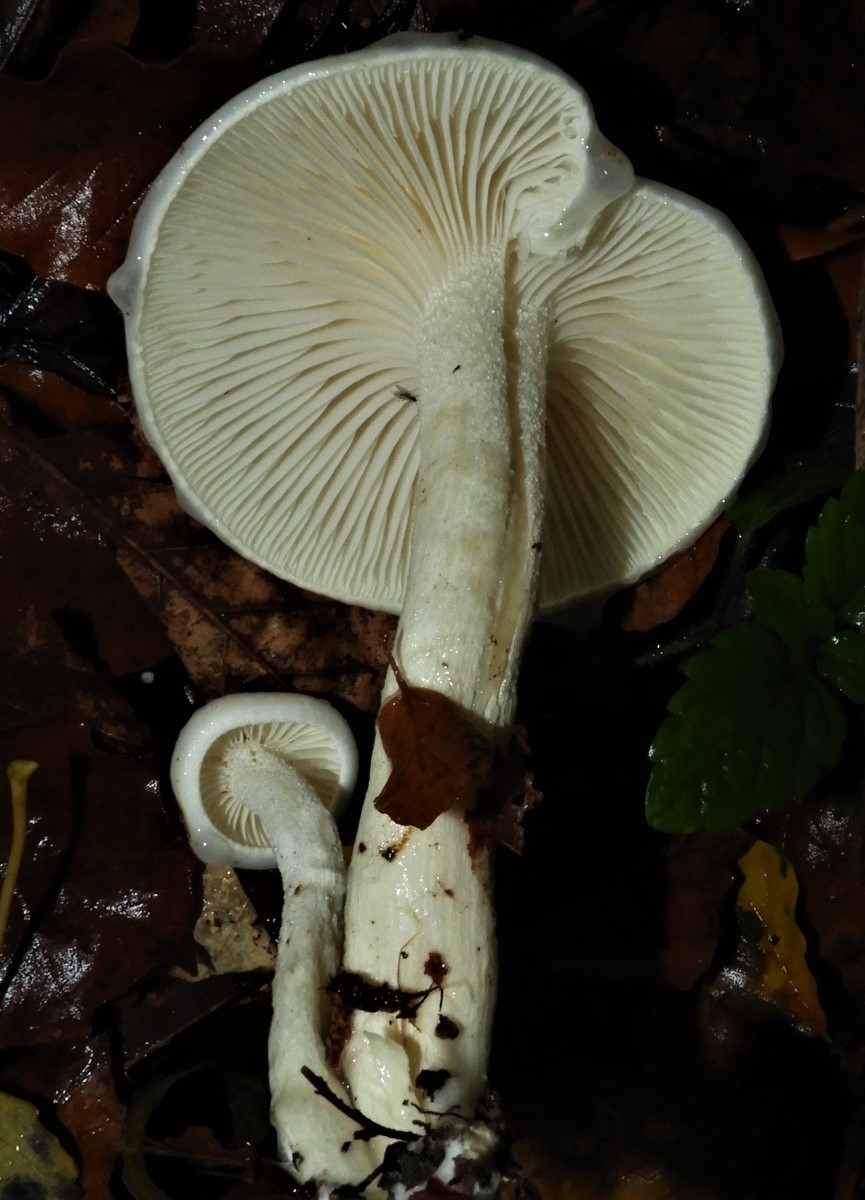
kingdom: Fungi
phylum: Basidiomycota
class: Agaricomycetes
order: Agaricales
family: Hygrophoraceae
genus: Hygrophorus
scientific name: Hygrophorus eburneus
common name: elfenbens-sneglehat
